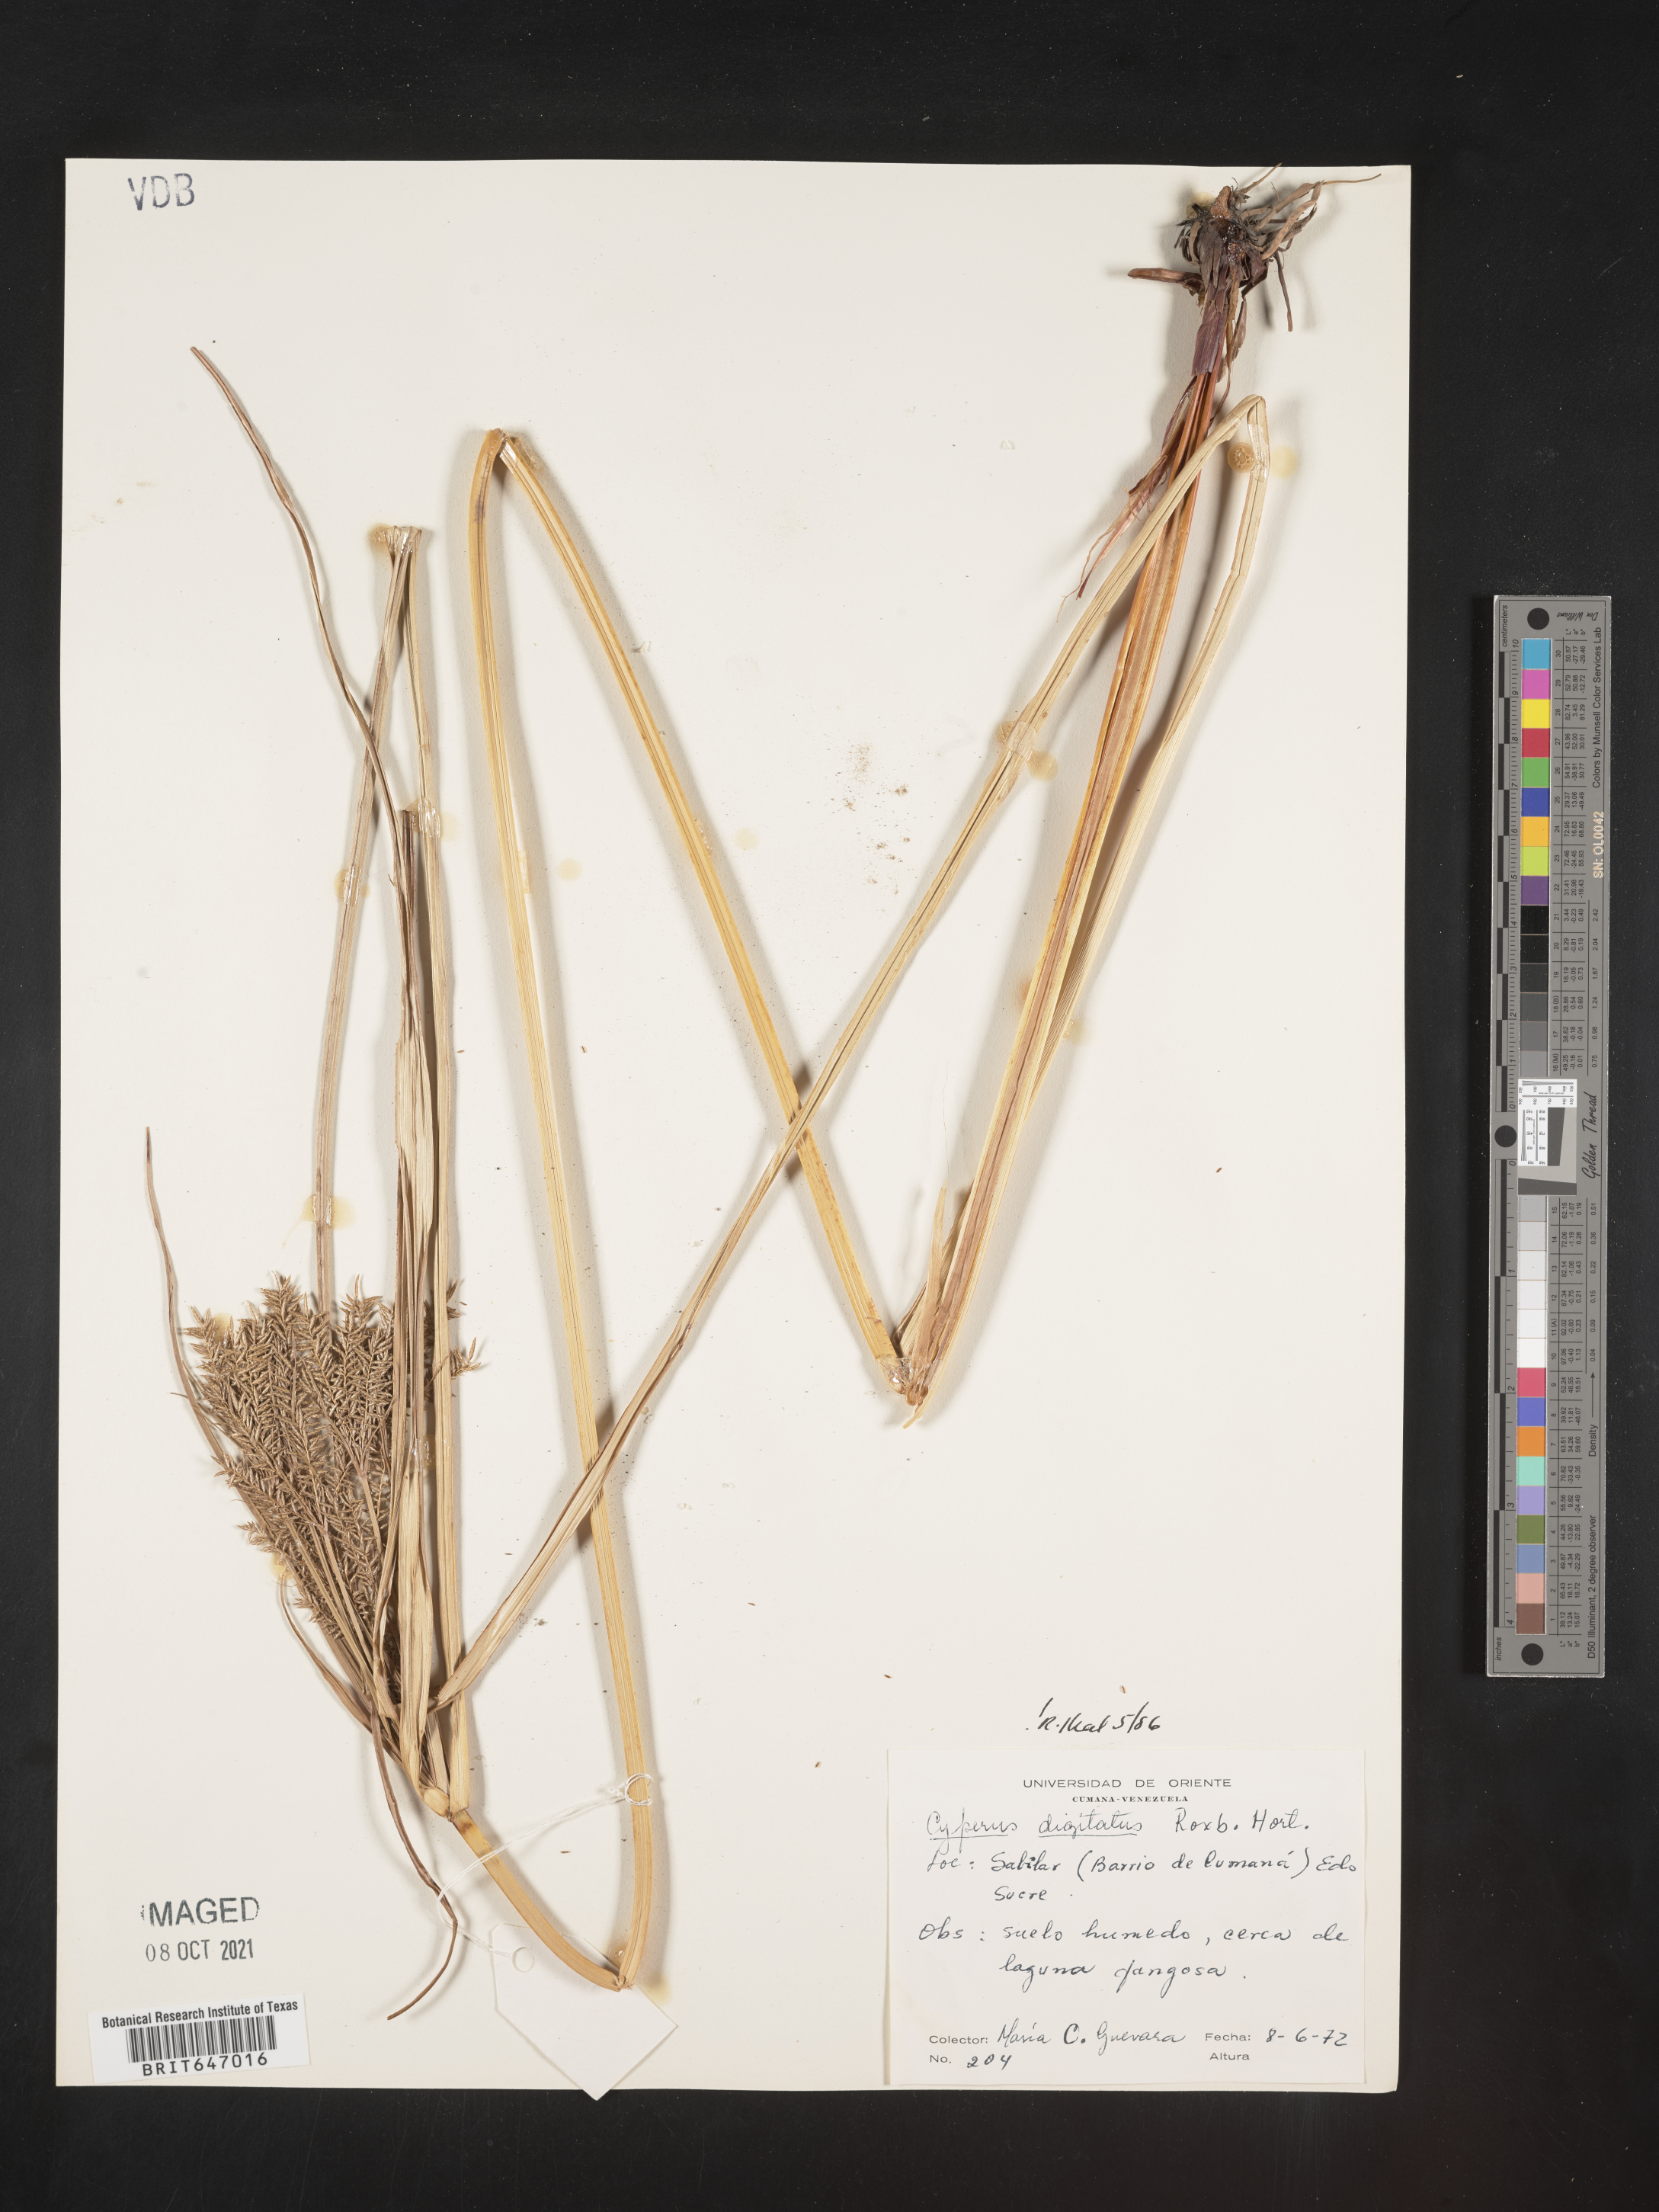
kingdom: Plantae
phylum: Tracheophyta
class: Liliopsida
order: Poales
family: Cyperaceae
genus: Cyperus
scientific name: Cyperus digitatus
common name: Finger flatsedge
